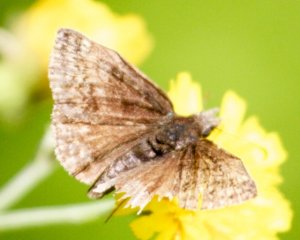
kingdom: Animalia
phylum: Arthropoda
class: Insecta
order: Lepidoptera
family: Hesperiidae
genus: Erynnis
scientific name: Erynnis icelus
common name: Dreamy Duskywing
